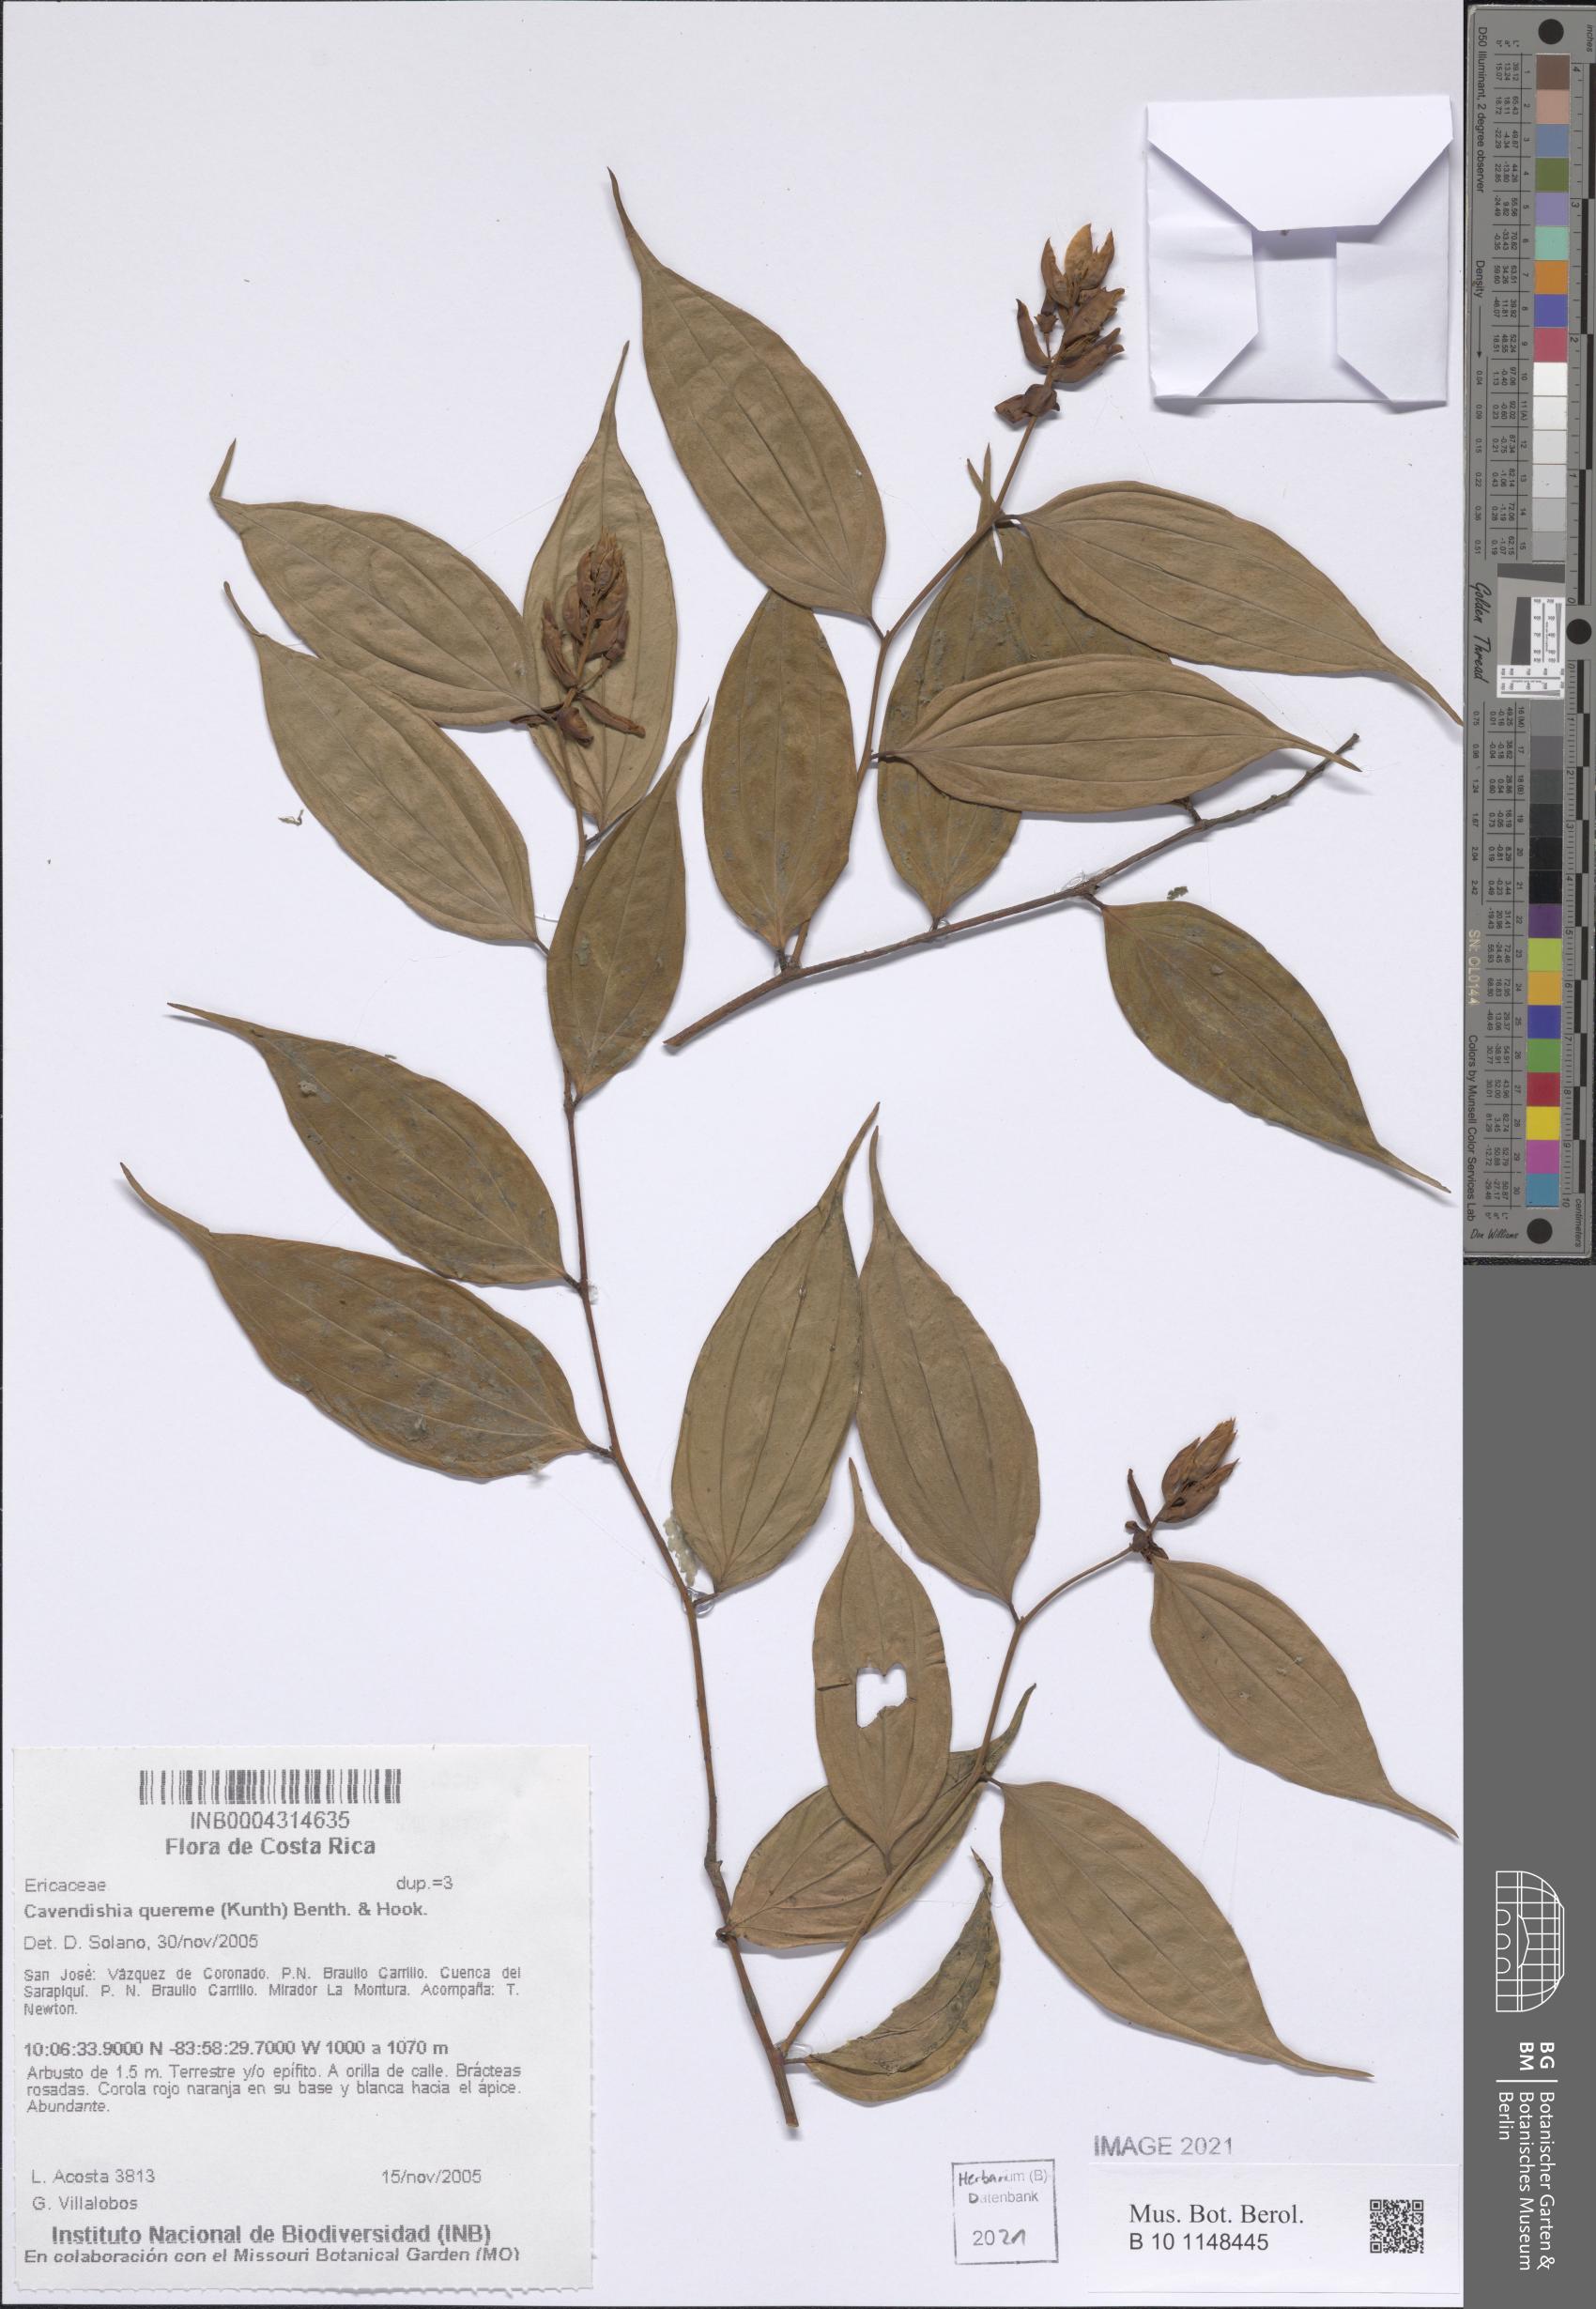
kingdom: Plantae
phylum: Tracheophyta
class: Magnoliopsida
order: Ericales
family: Ericaceae
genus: Cavendishia
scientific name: Cavendishia quereme
